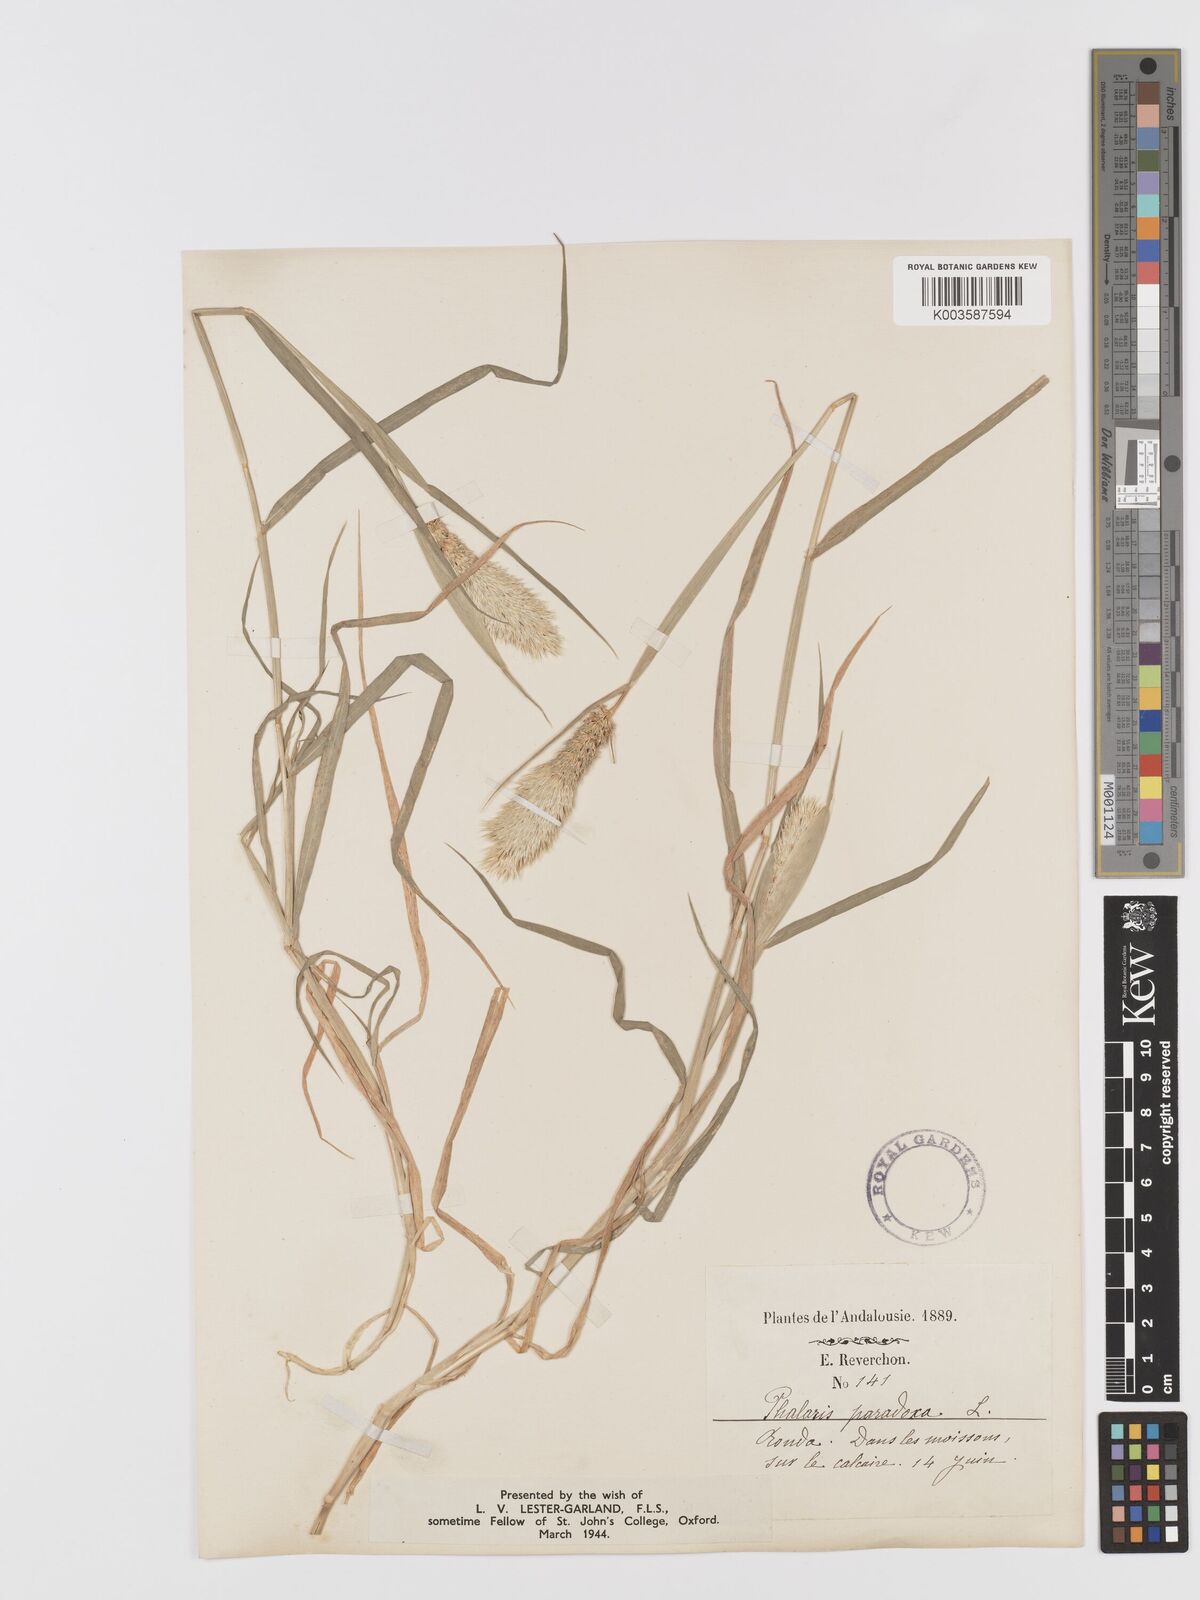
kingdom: Plantae
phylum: Tracheophyta
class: Liliopsida
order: Poales
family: Poaceae
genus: Phalaris
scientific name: Phalaris paradoxa
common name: Awned canary-grass
